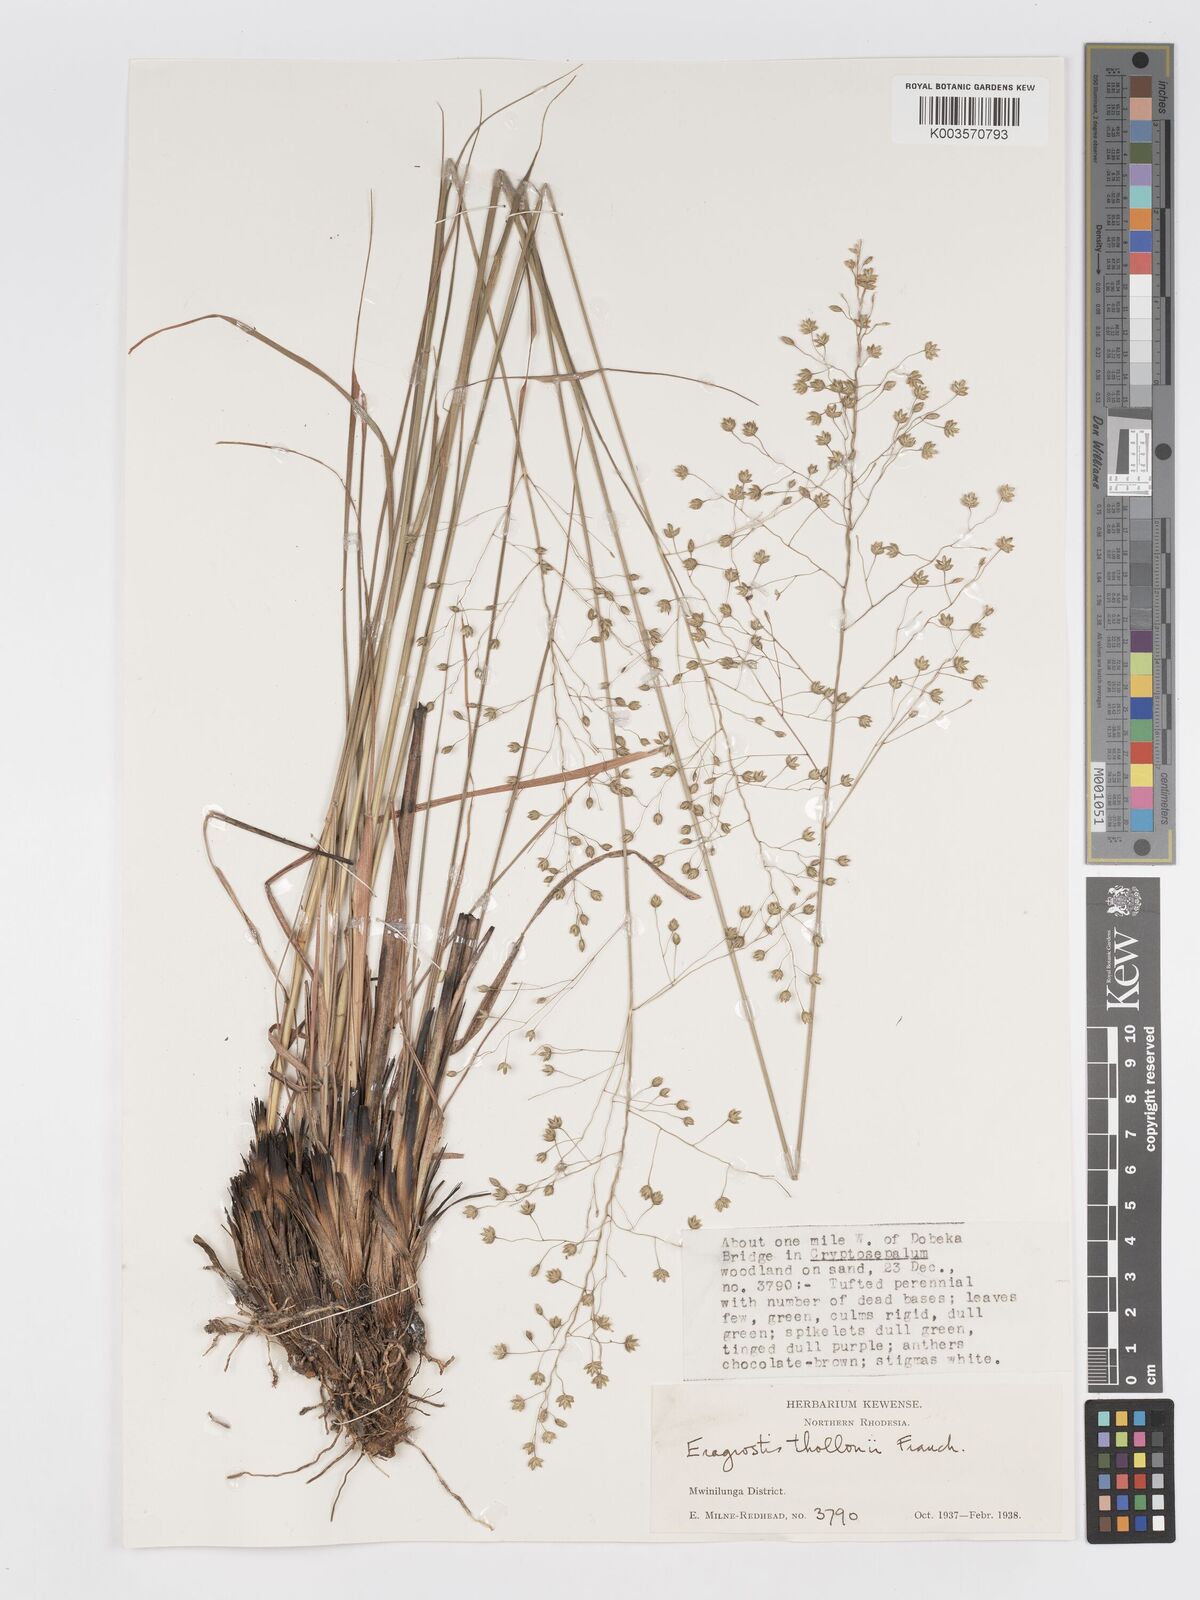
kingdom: Plantae
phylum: Tracheophyta
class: Liliopsida
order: Poales
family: Poaceae
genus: Eragrostis
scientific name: Eragrostis thollonii
